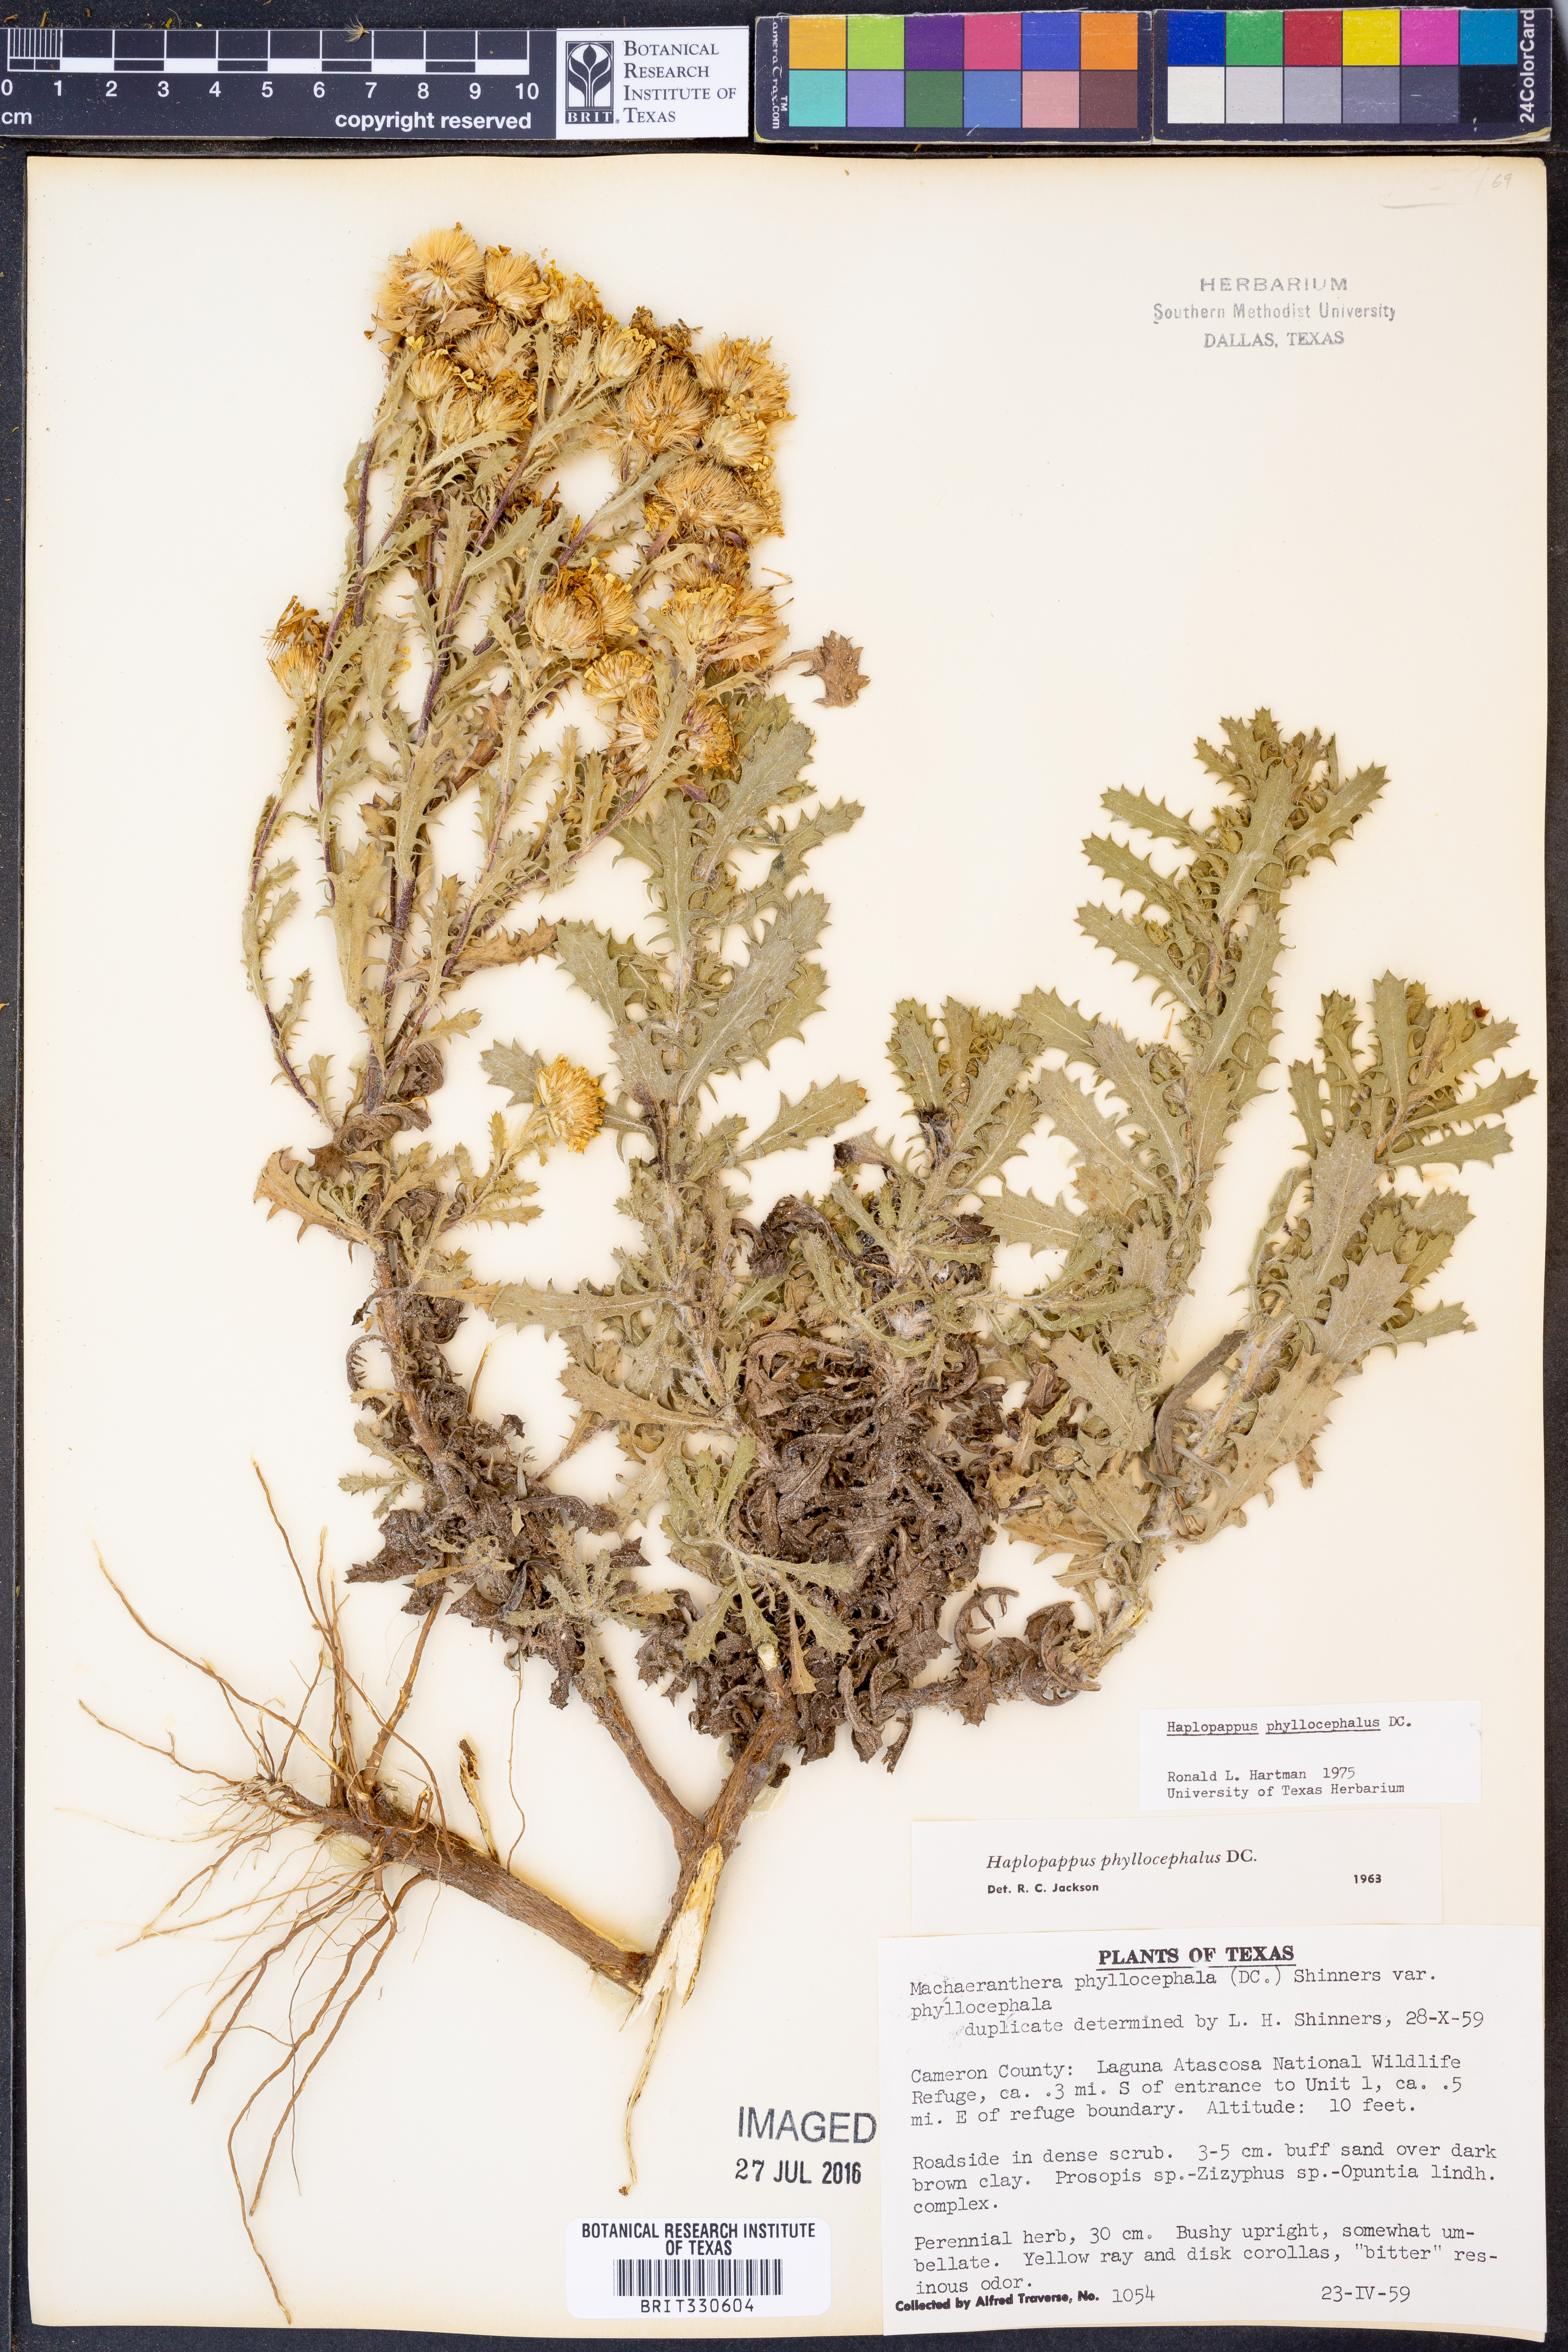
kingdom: Plantae
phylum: Tracheophyta
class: Magnoliopsida
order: Asterales
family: Asteraceae
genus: Rayjacksonia
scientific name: Rayjacksonia phyllocephala
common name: Gulf coast camphor daisy
